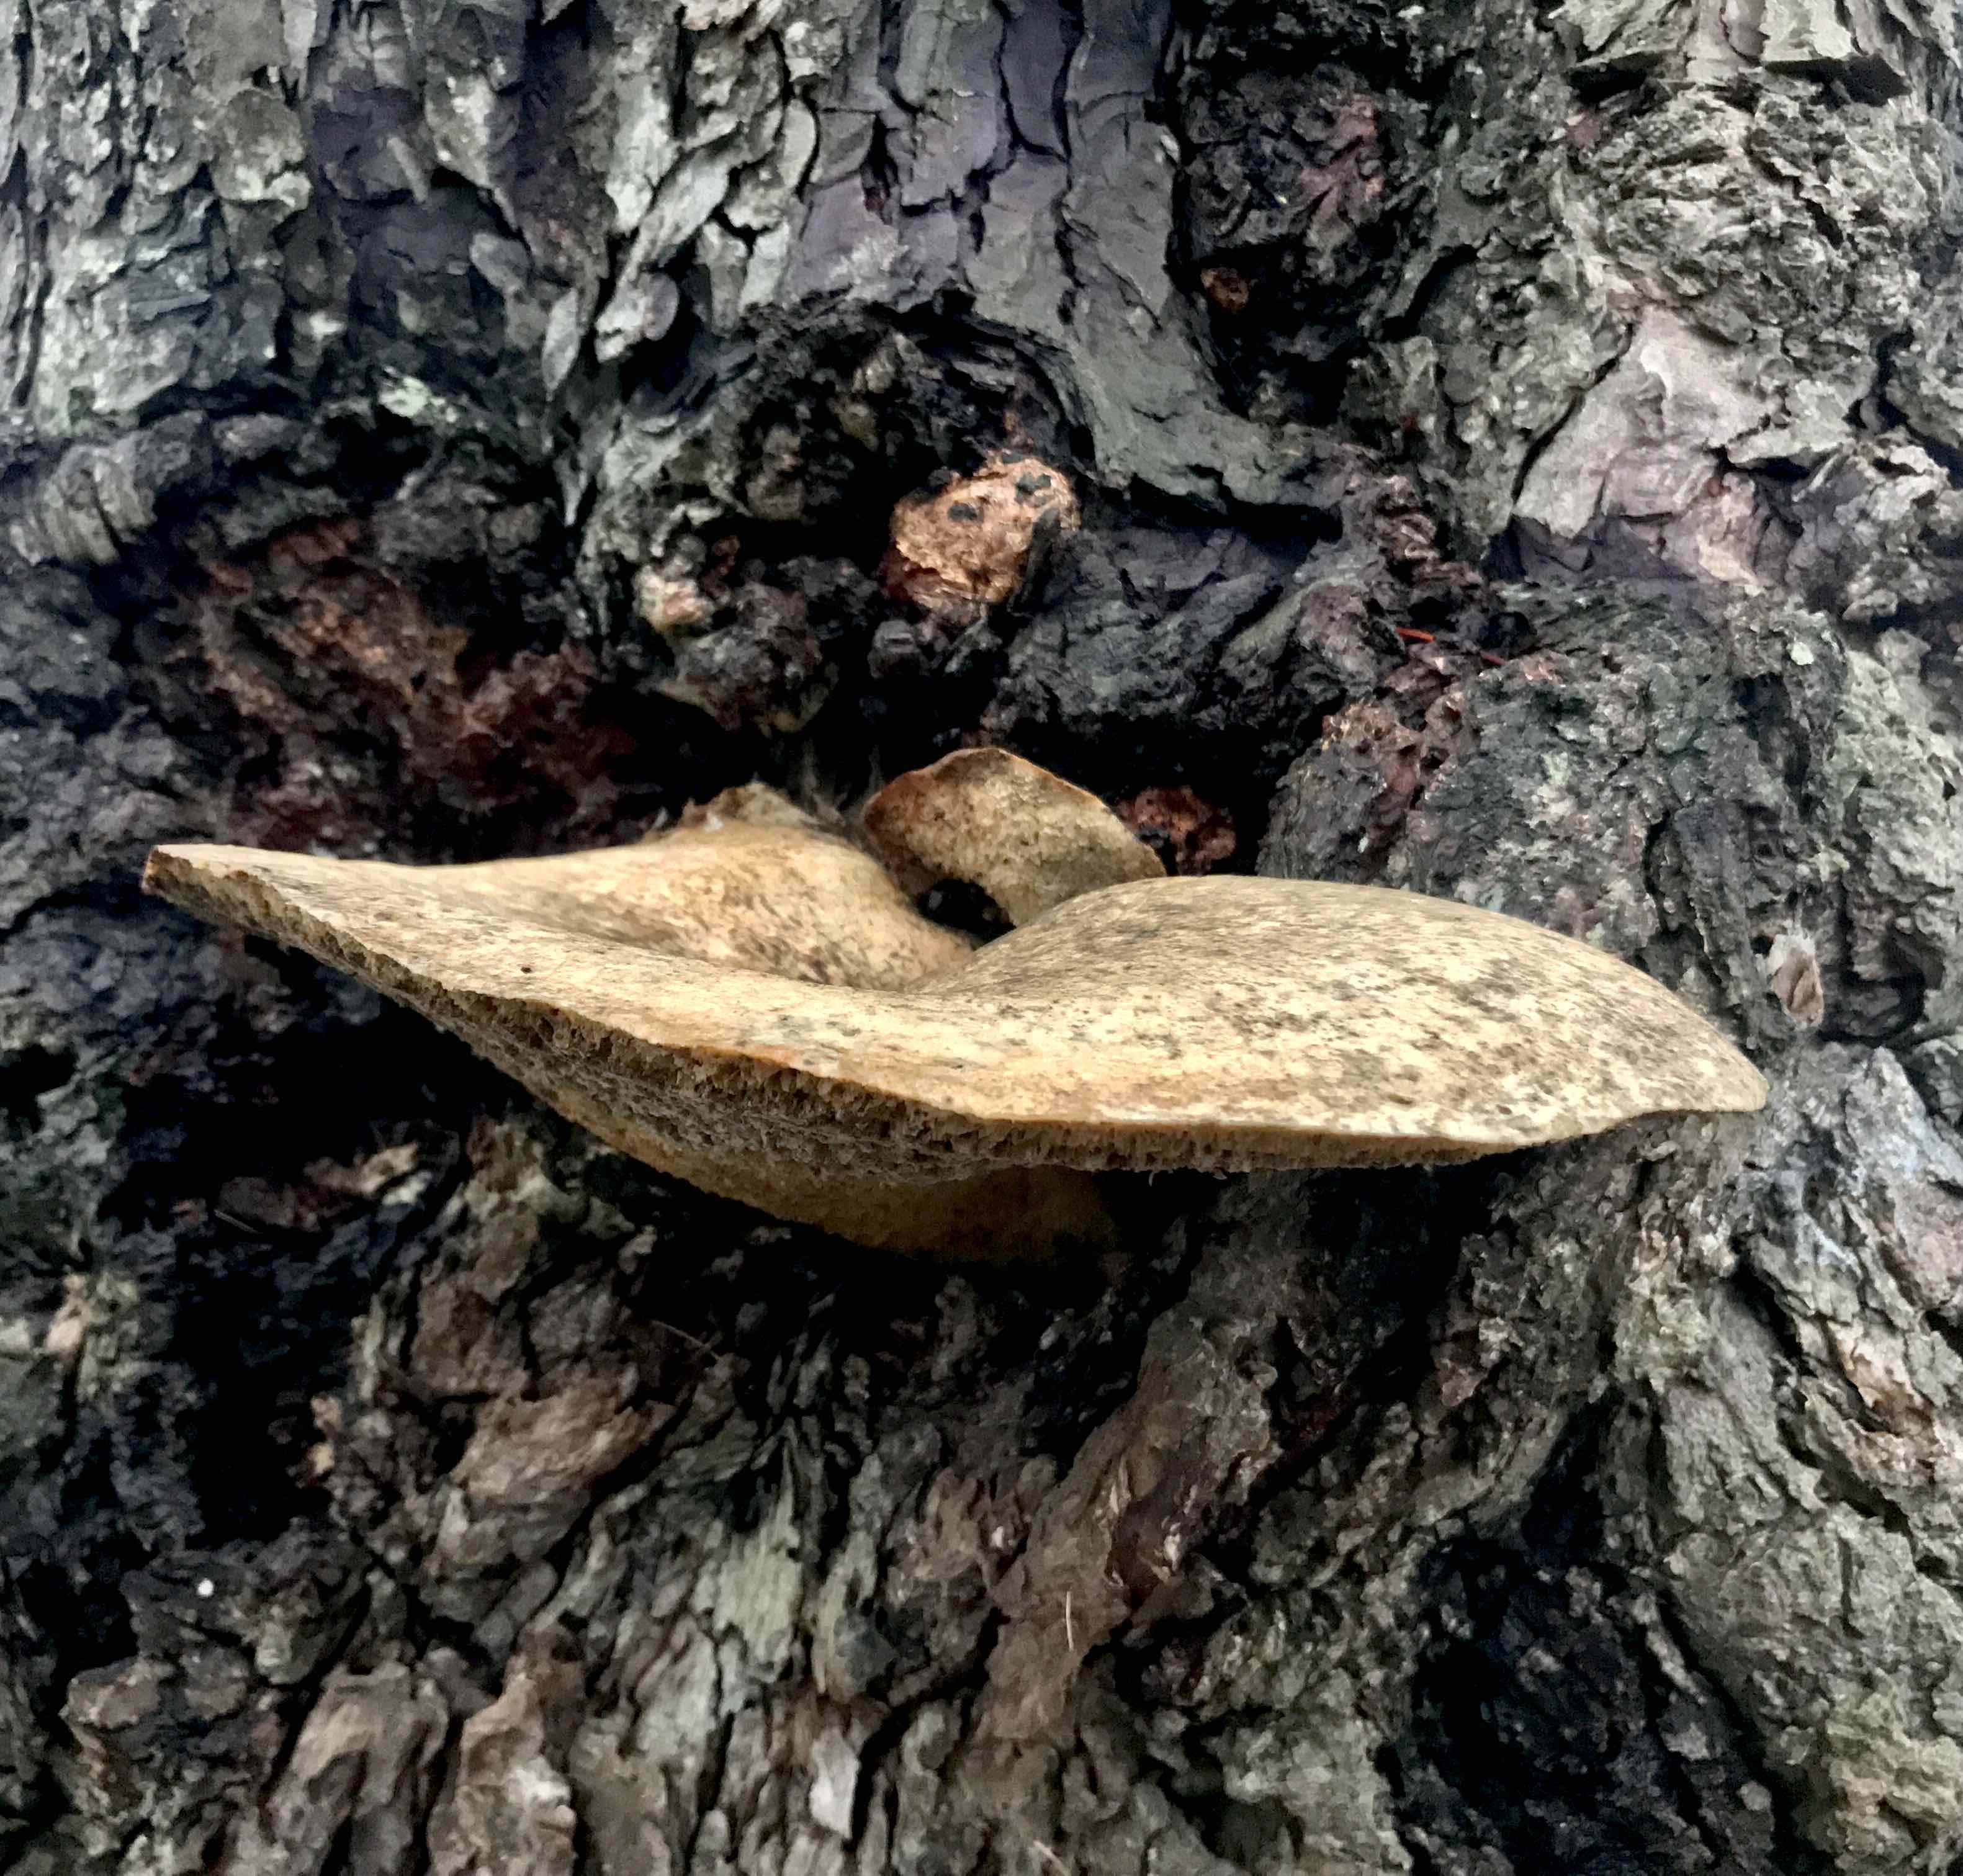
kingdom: Fungi
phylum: Basidiomycota
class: Agaricomycetes
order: Polyporales
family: Polyporaceae
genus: Cerioporus
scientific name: Cerioporus squamosus
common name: skællet stilkporesvamp
